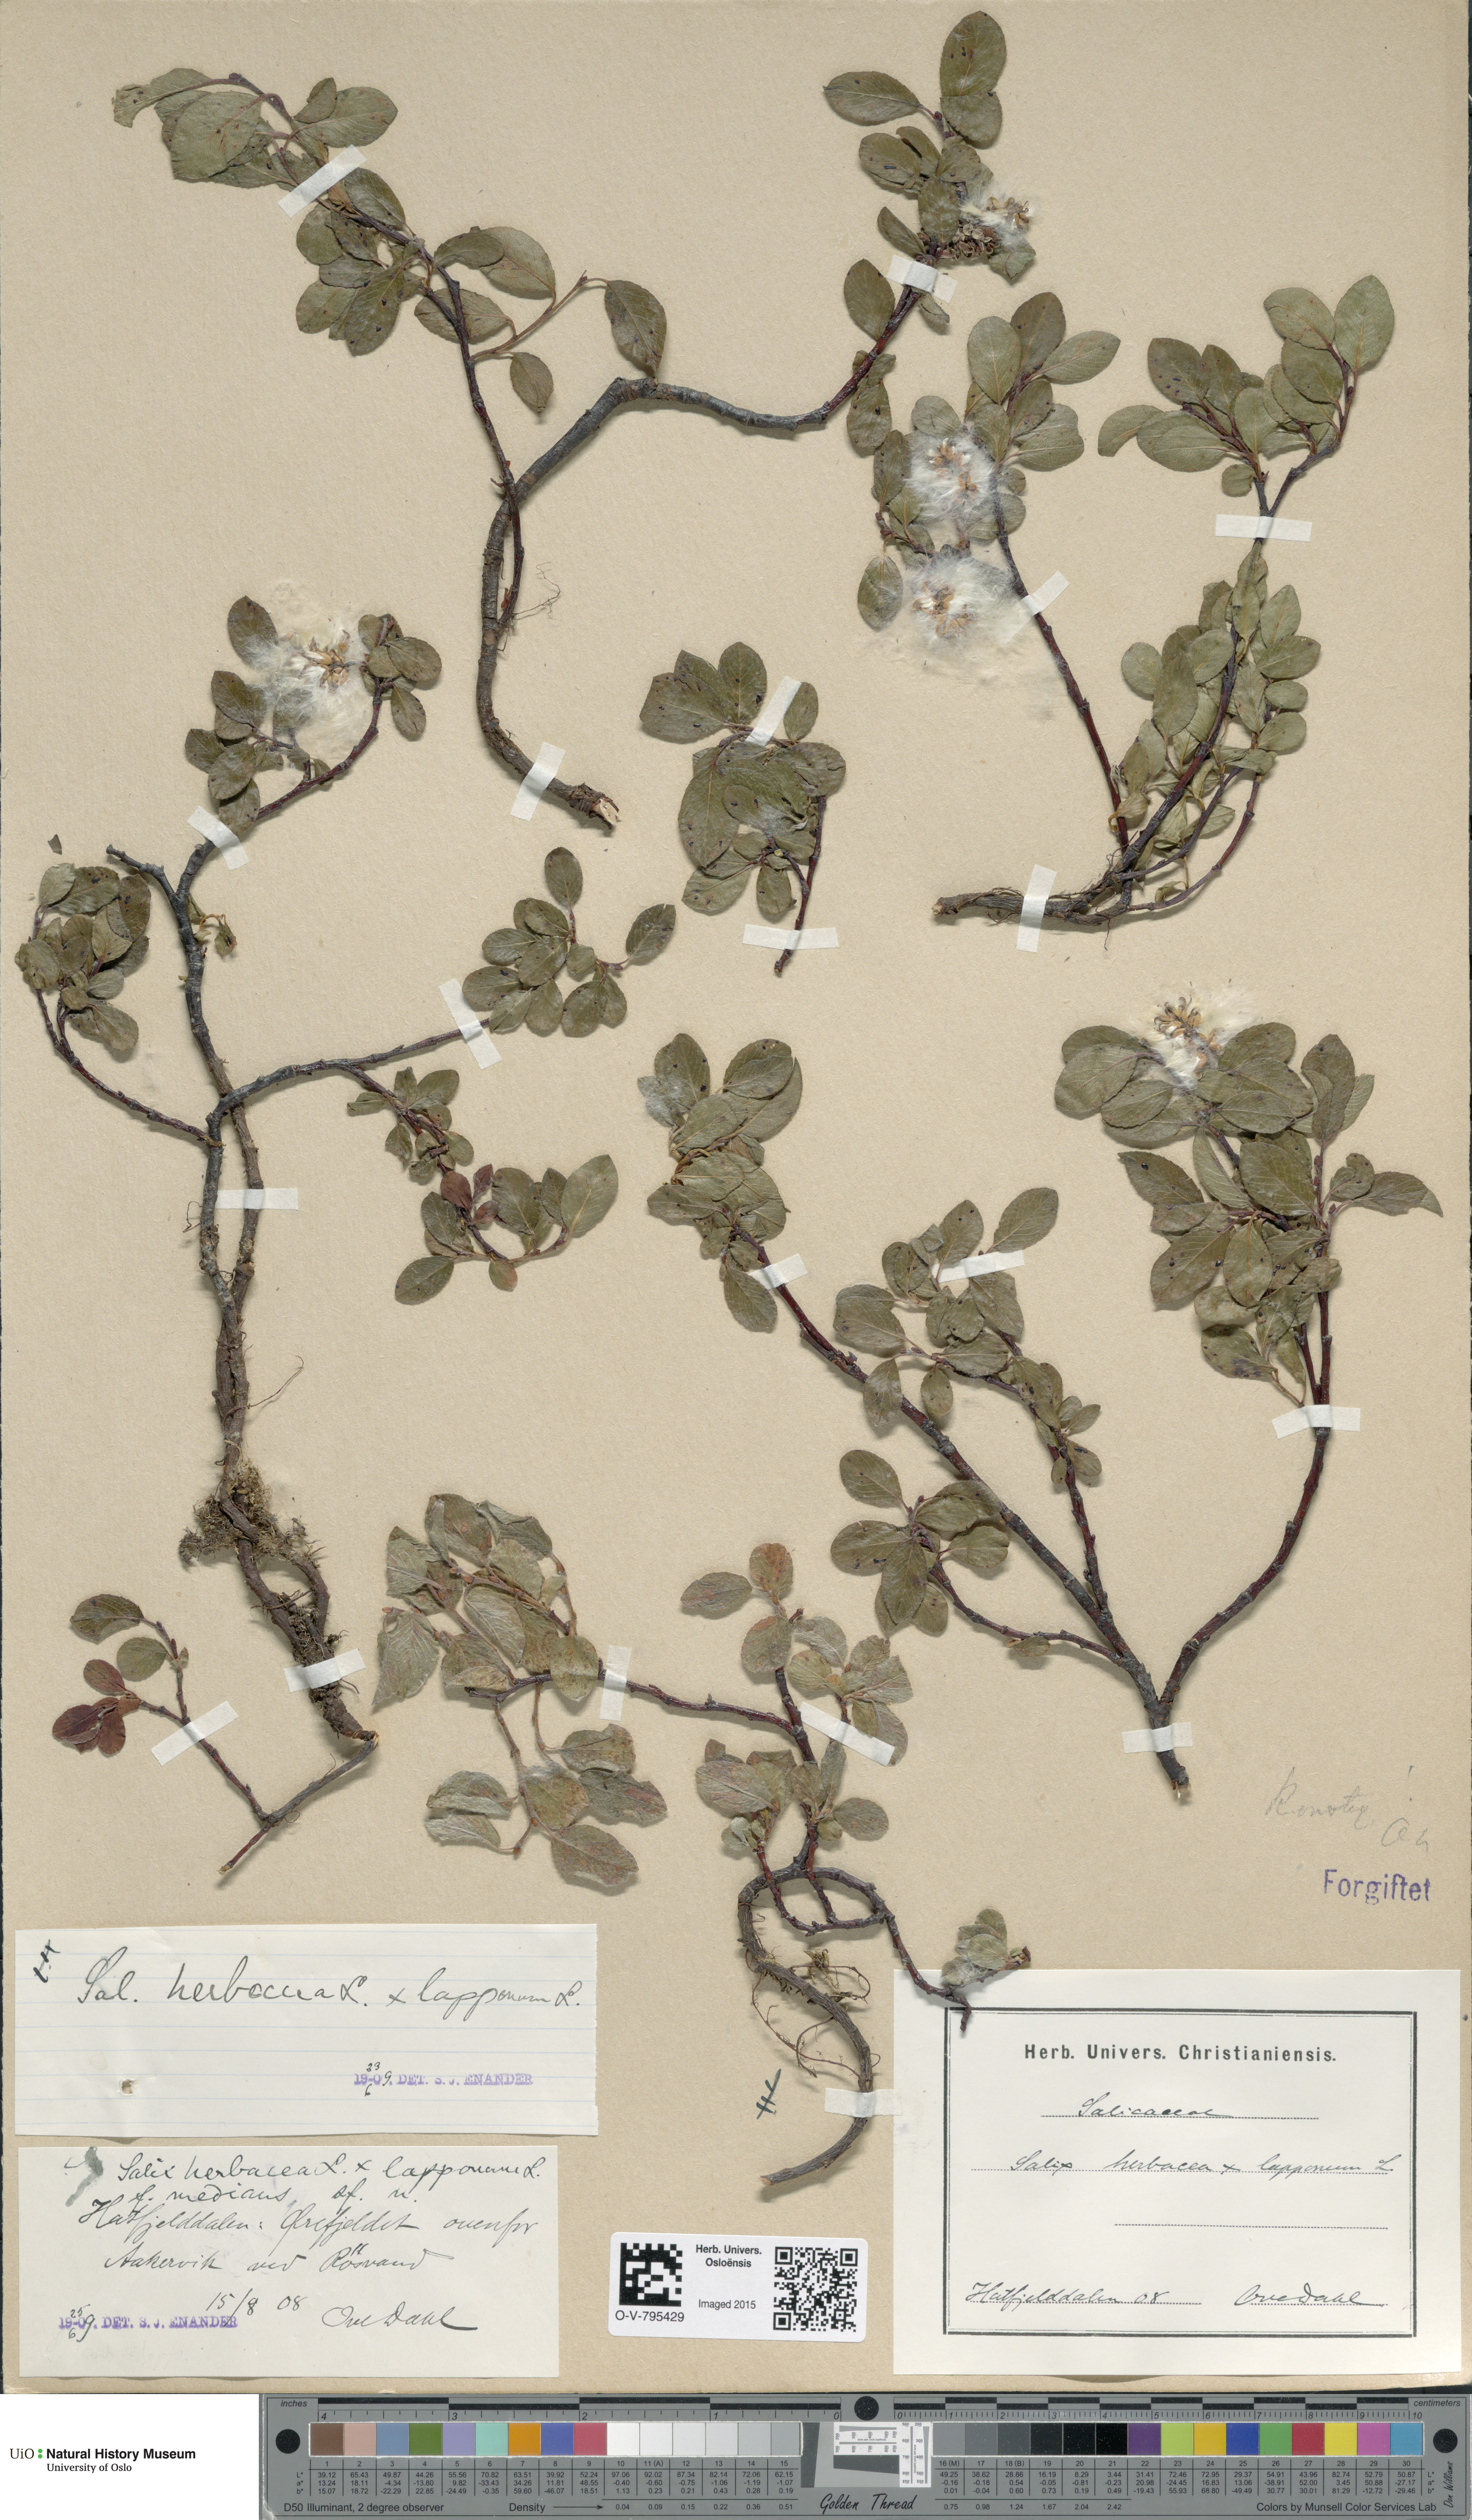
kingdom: Plantae
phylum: Tracheophyta
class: Magnoliopsida
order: Malpighiales
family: Salicaceae
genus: Salix
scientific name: Salix
